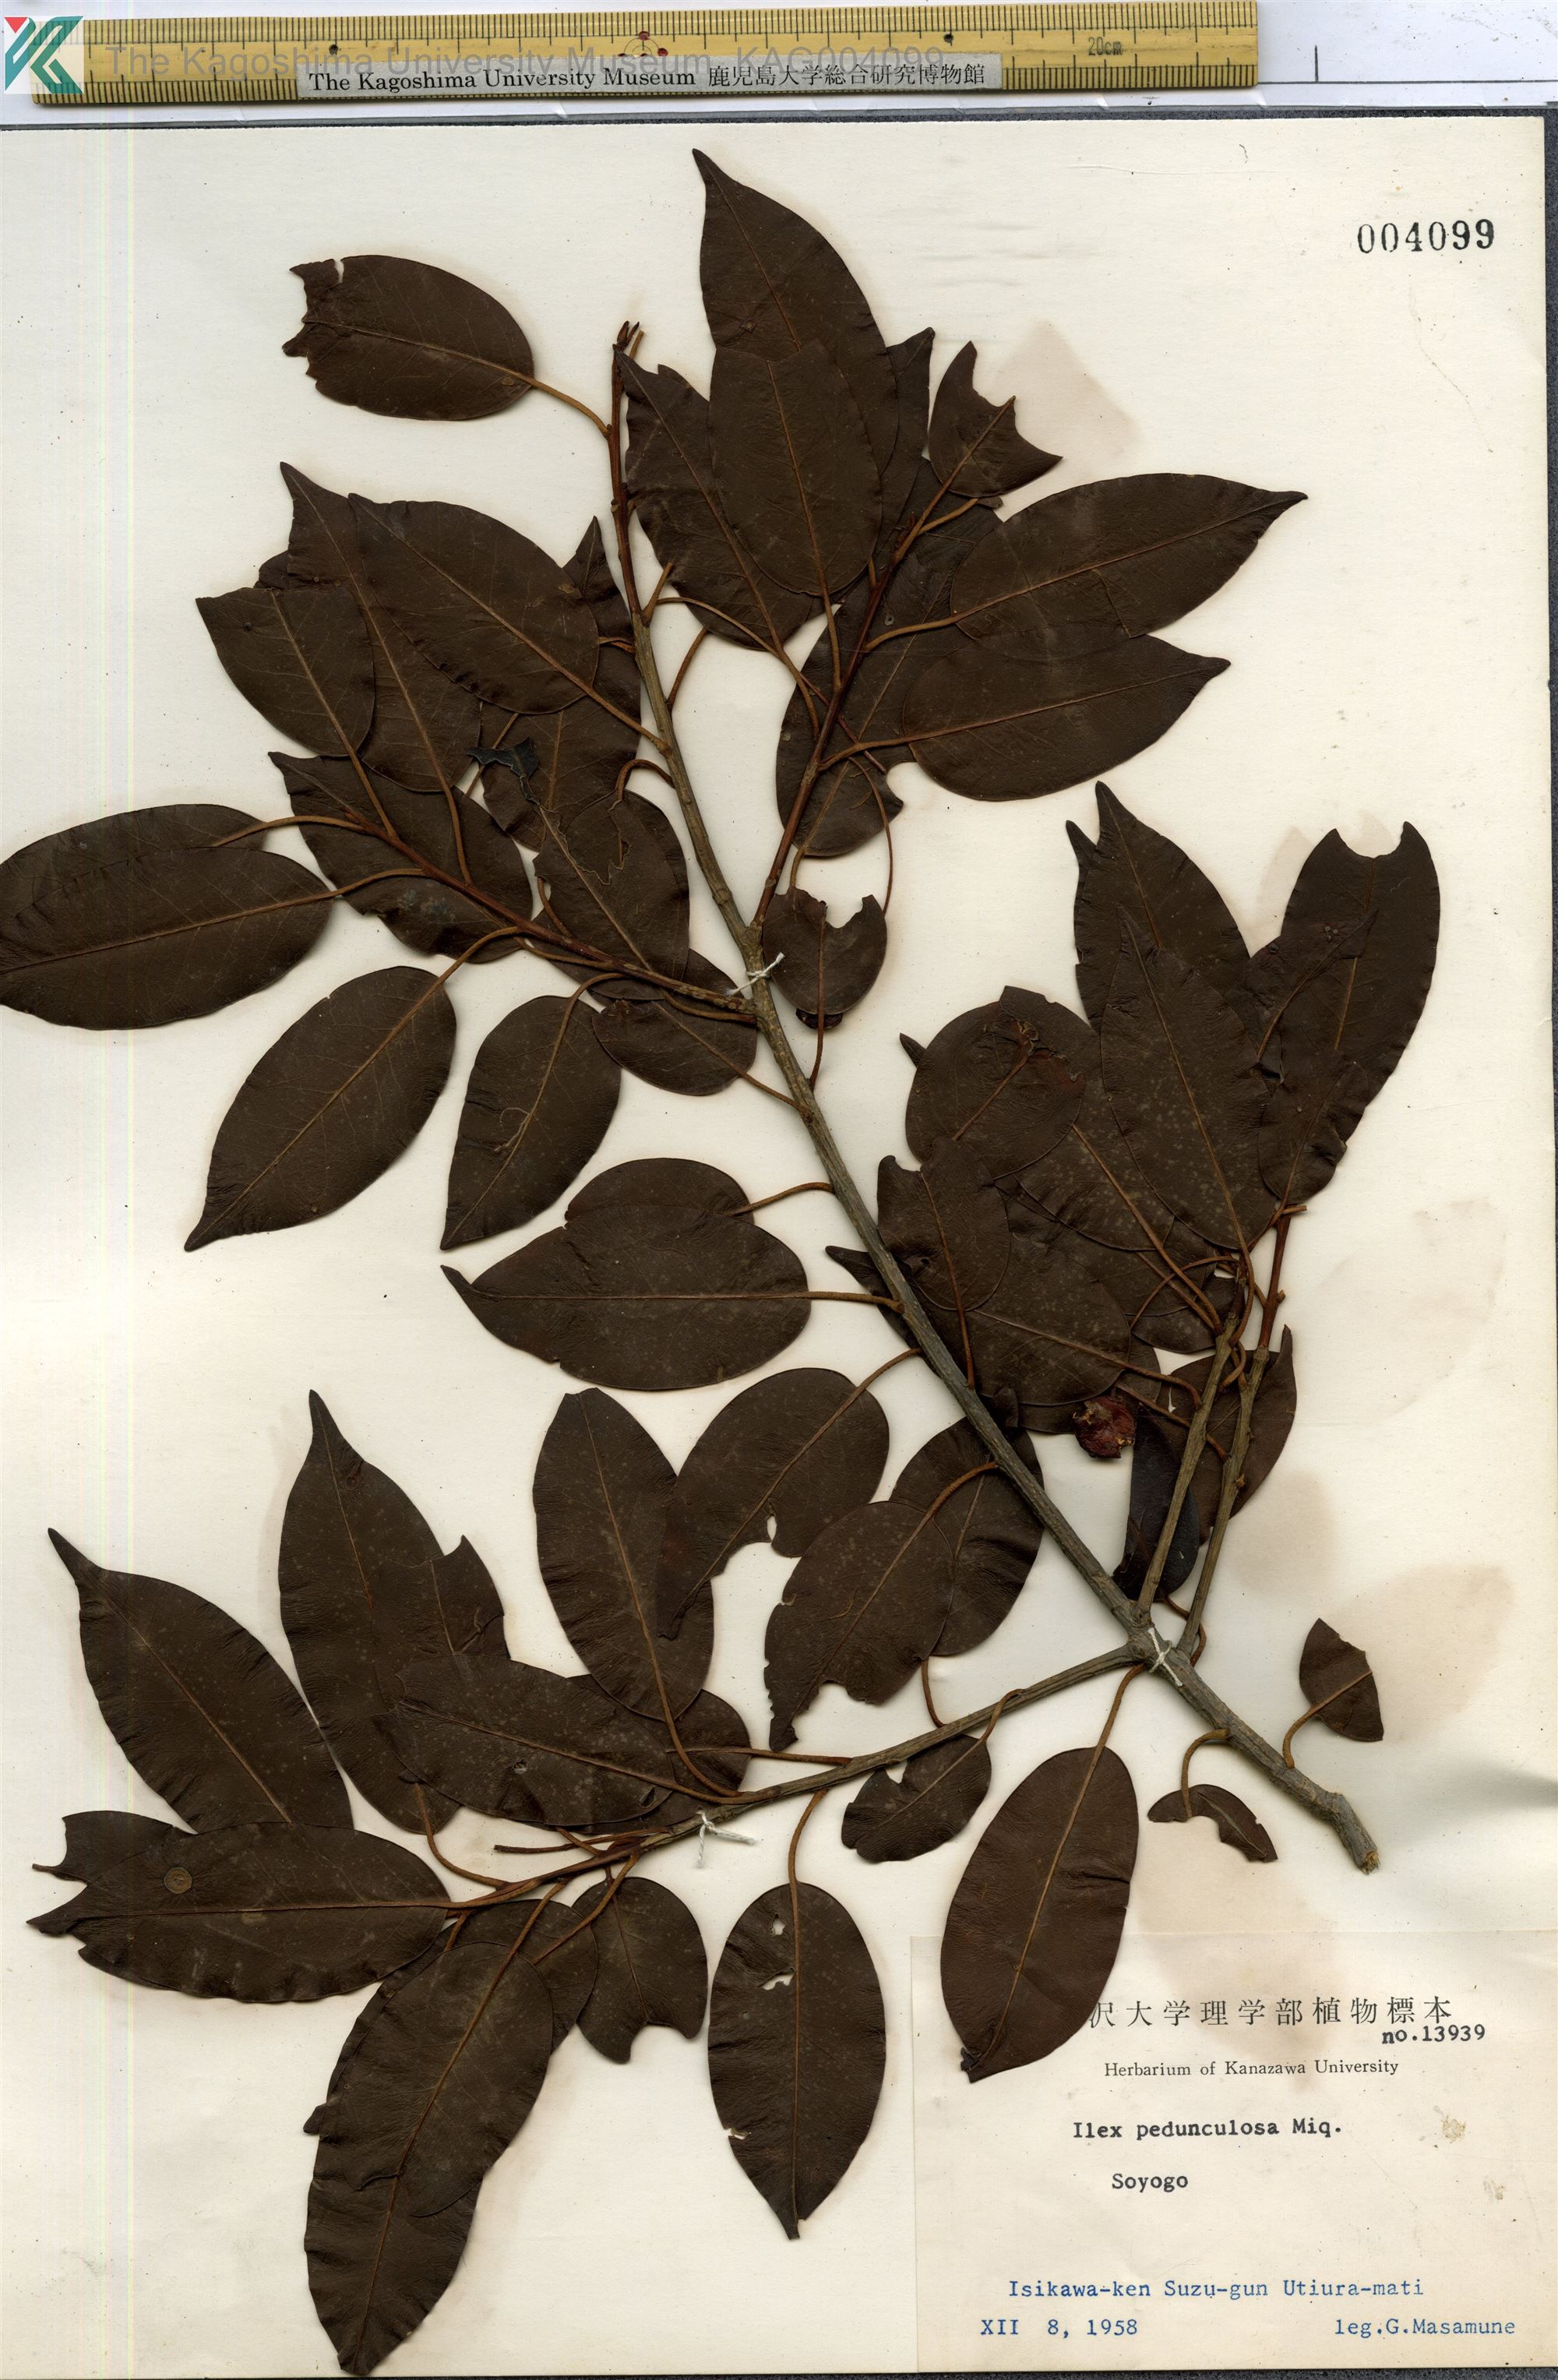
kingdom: Plantae
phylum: Tracheophyta
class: Magnoliopsida
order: Aquifoliales
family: Aquifoliaceae
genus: Ilex
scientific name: Ilex pedunculosa
